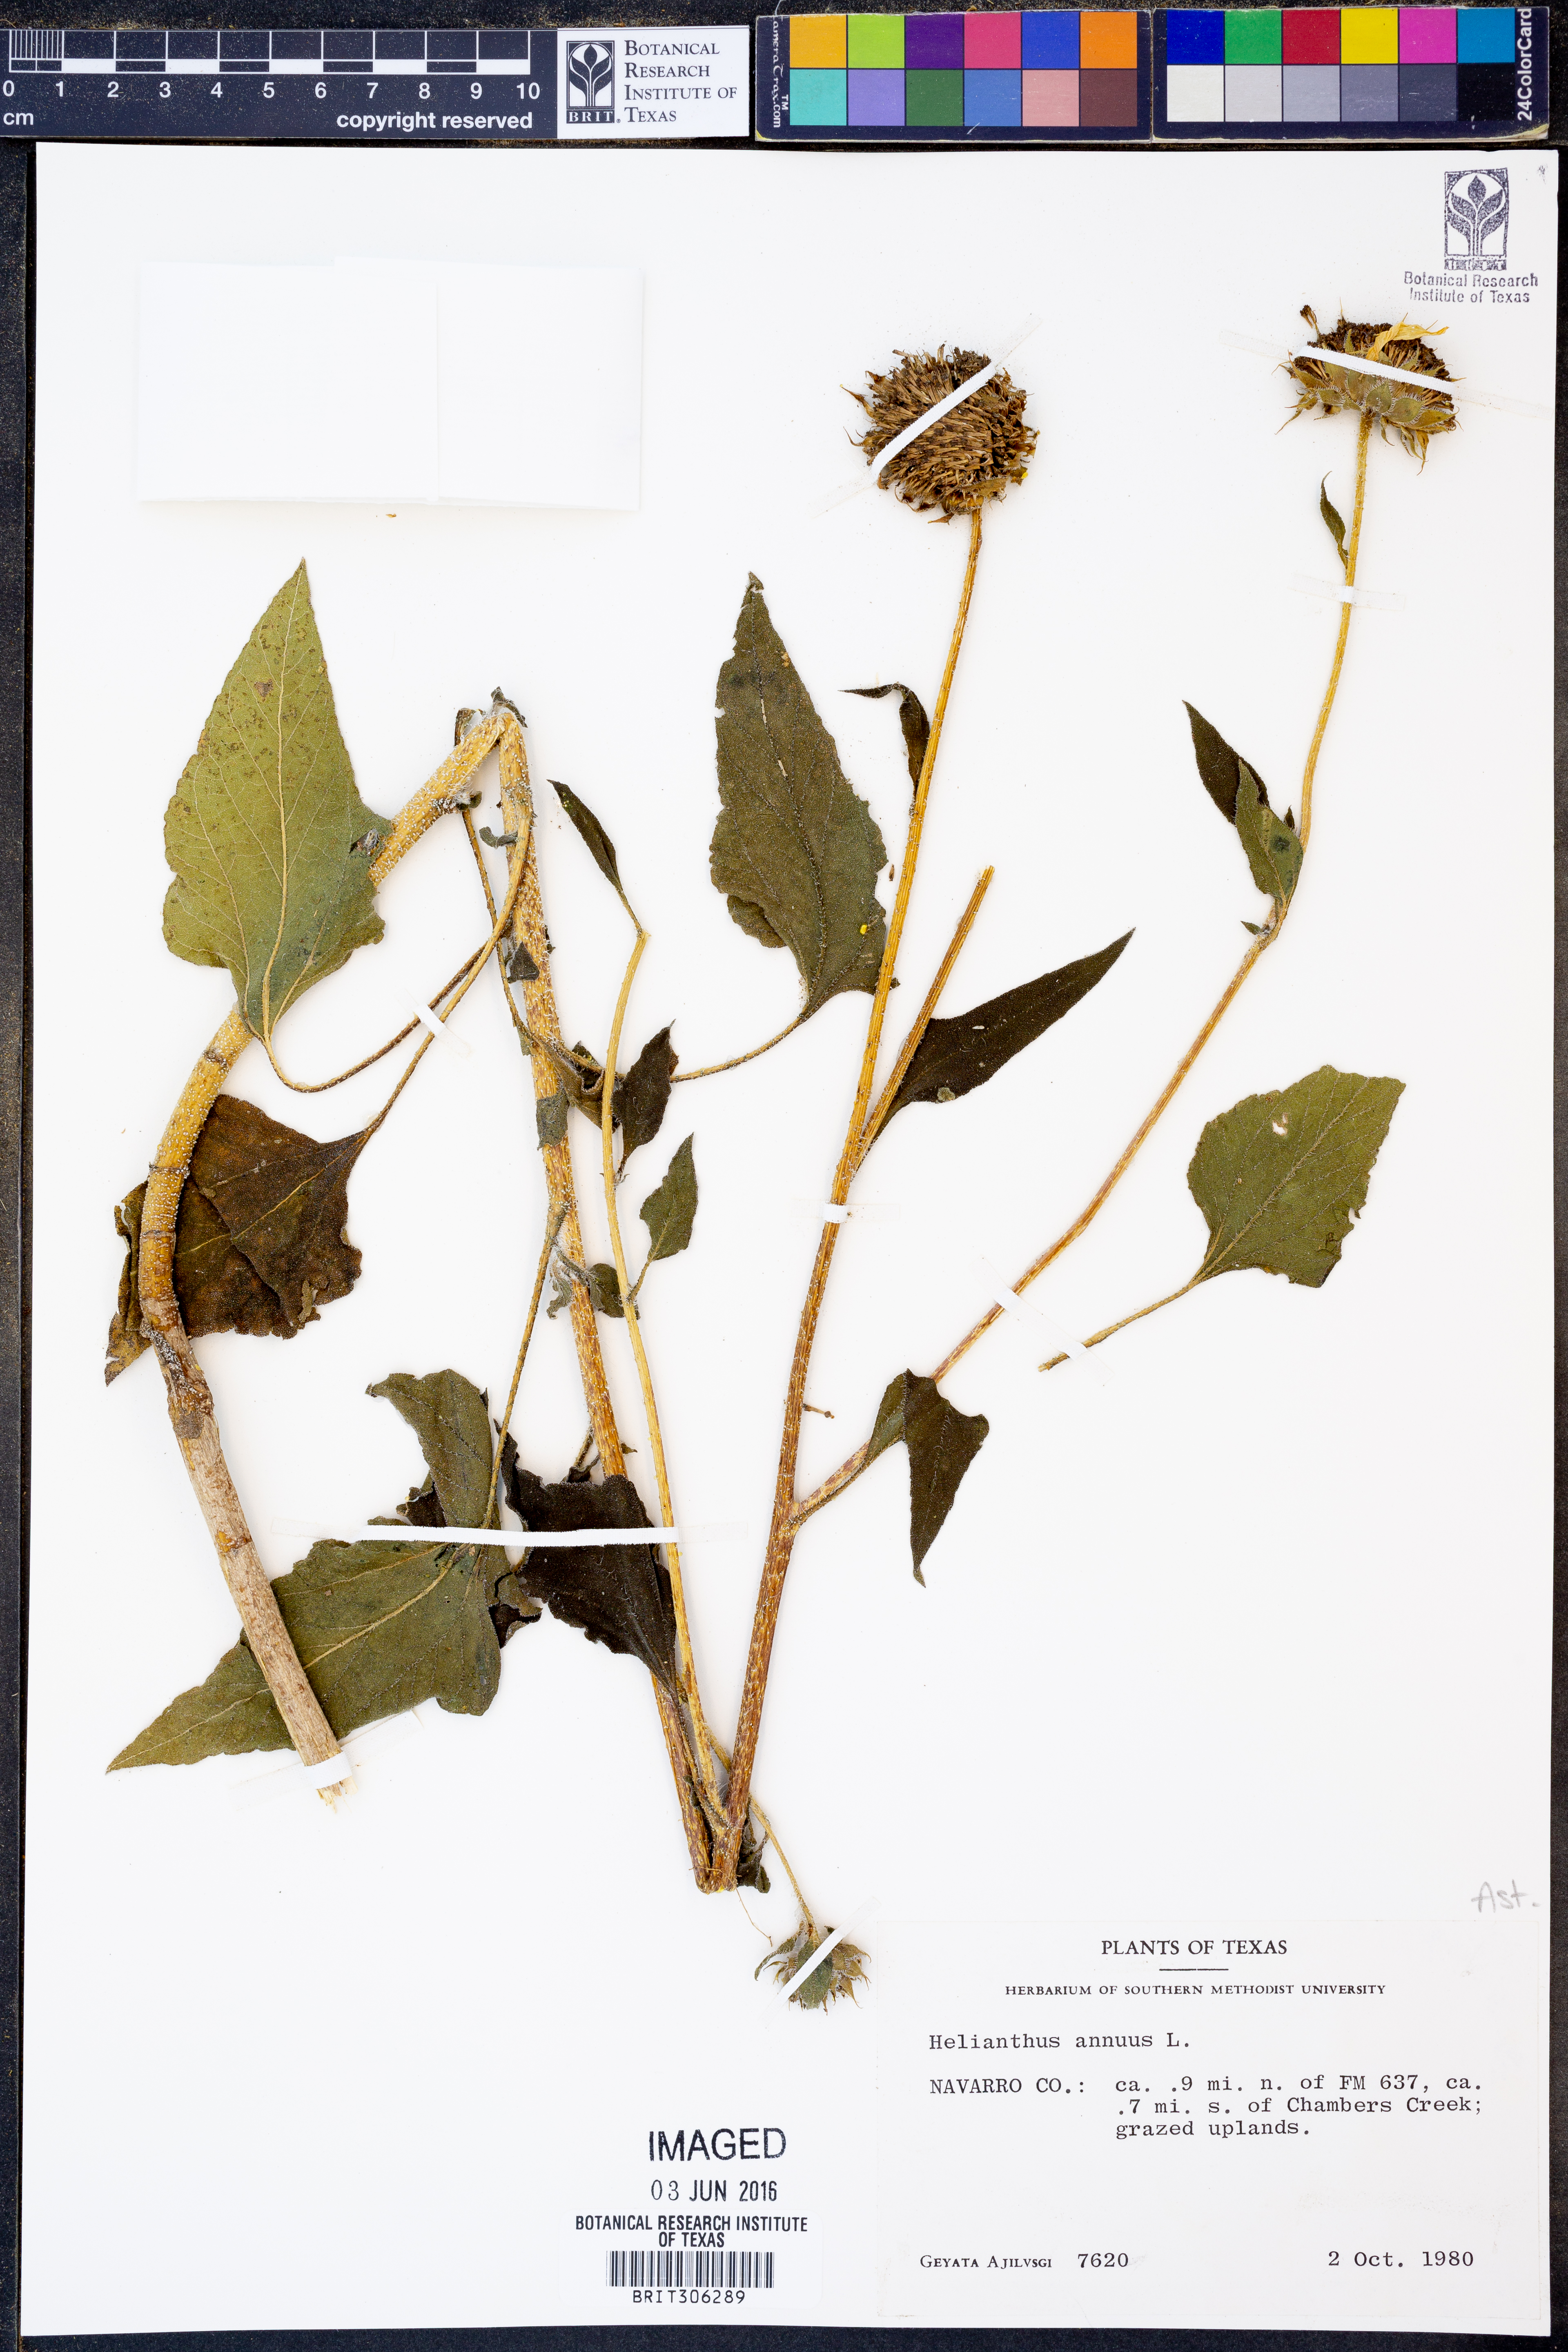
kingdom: Plantae
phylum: Tracheophyta
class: Magnoliopsida
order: Asterales
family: Asteraceae
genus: Helianthus
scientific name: Helianthus annuus
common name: Sunflower
